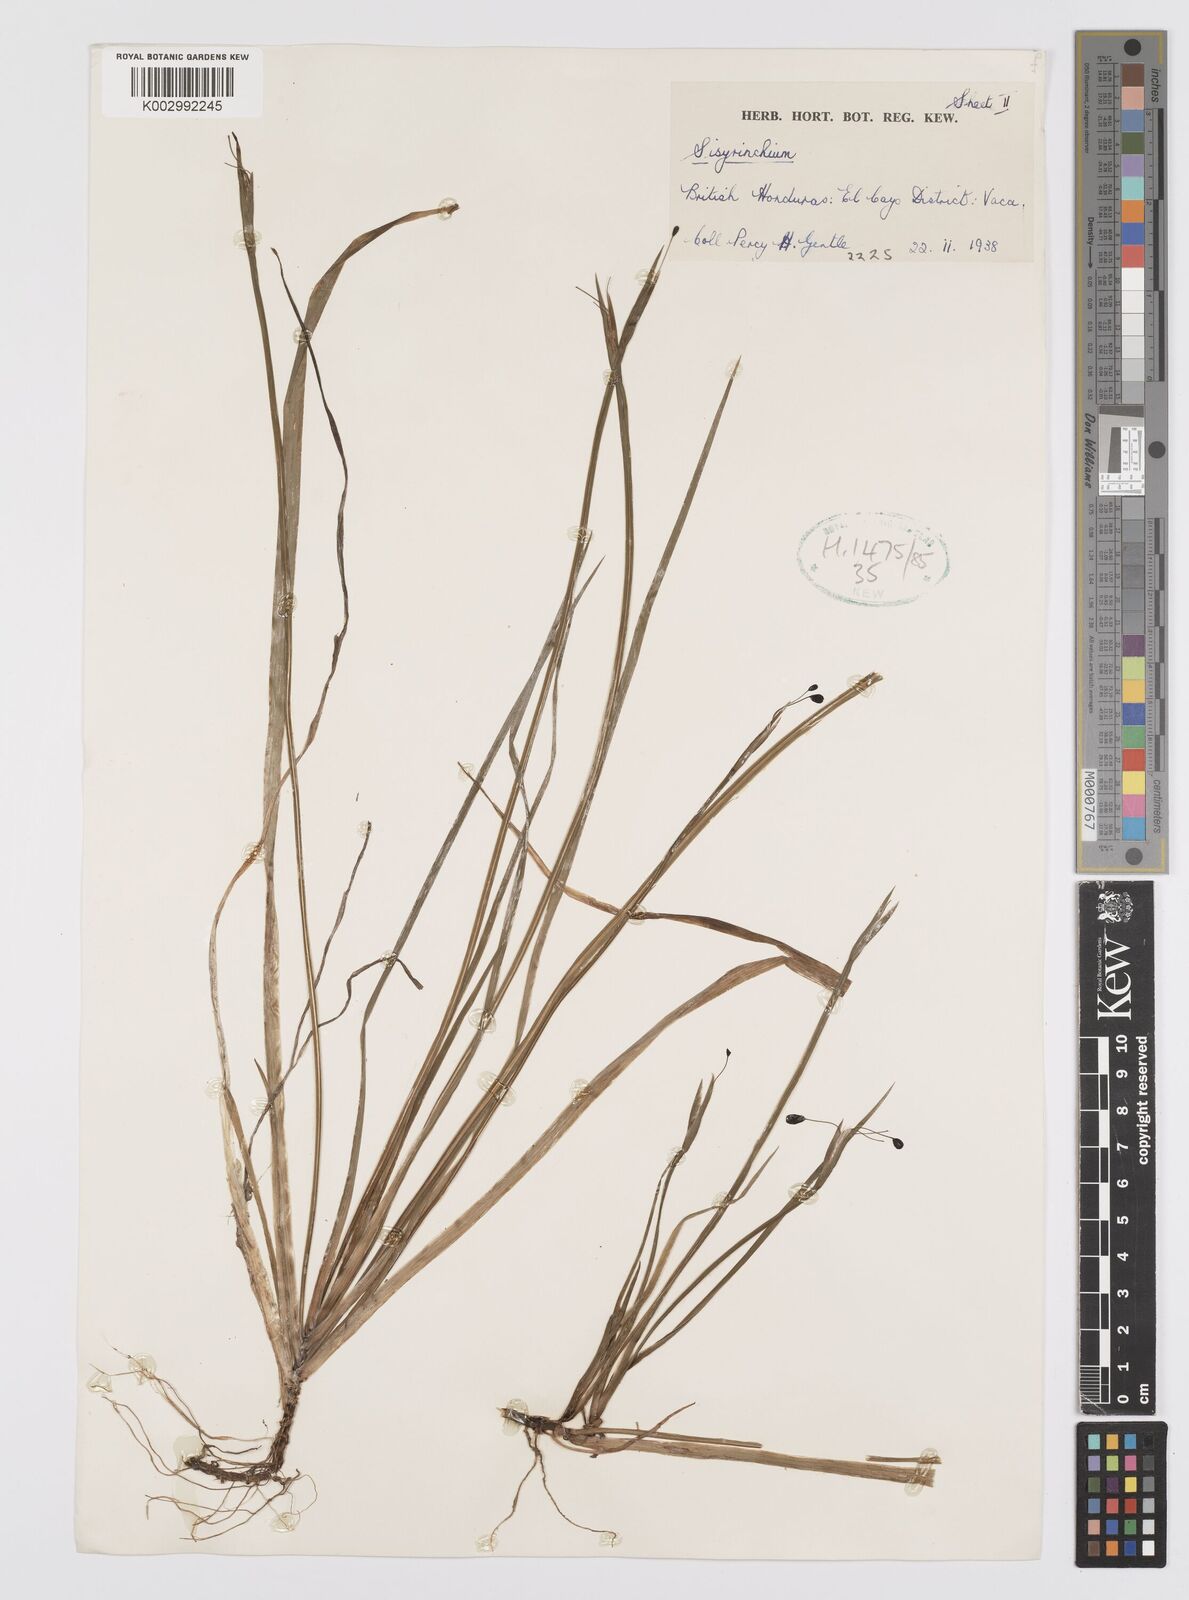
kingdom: Plantae
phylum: Tracheophyta
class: Liliopsida
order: Asparagales
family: Iridaceae
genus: Sisyrinchium
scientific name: Sisyrinchium
